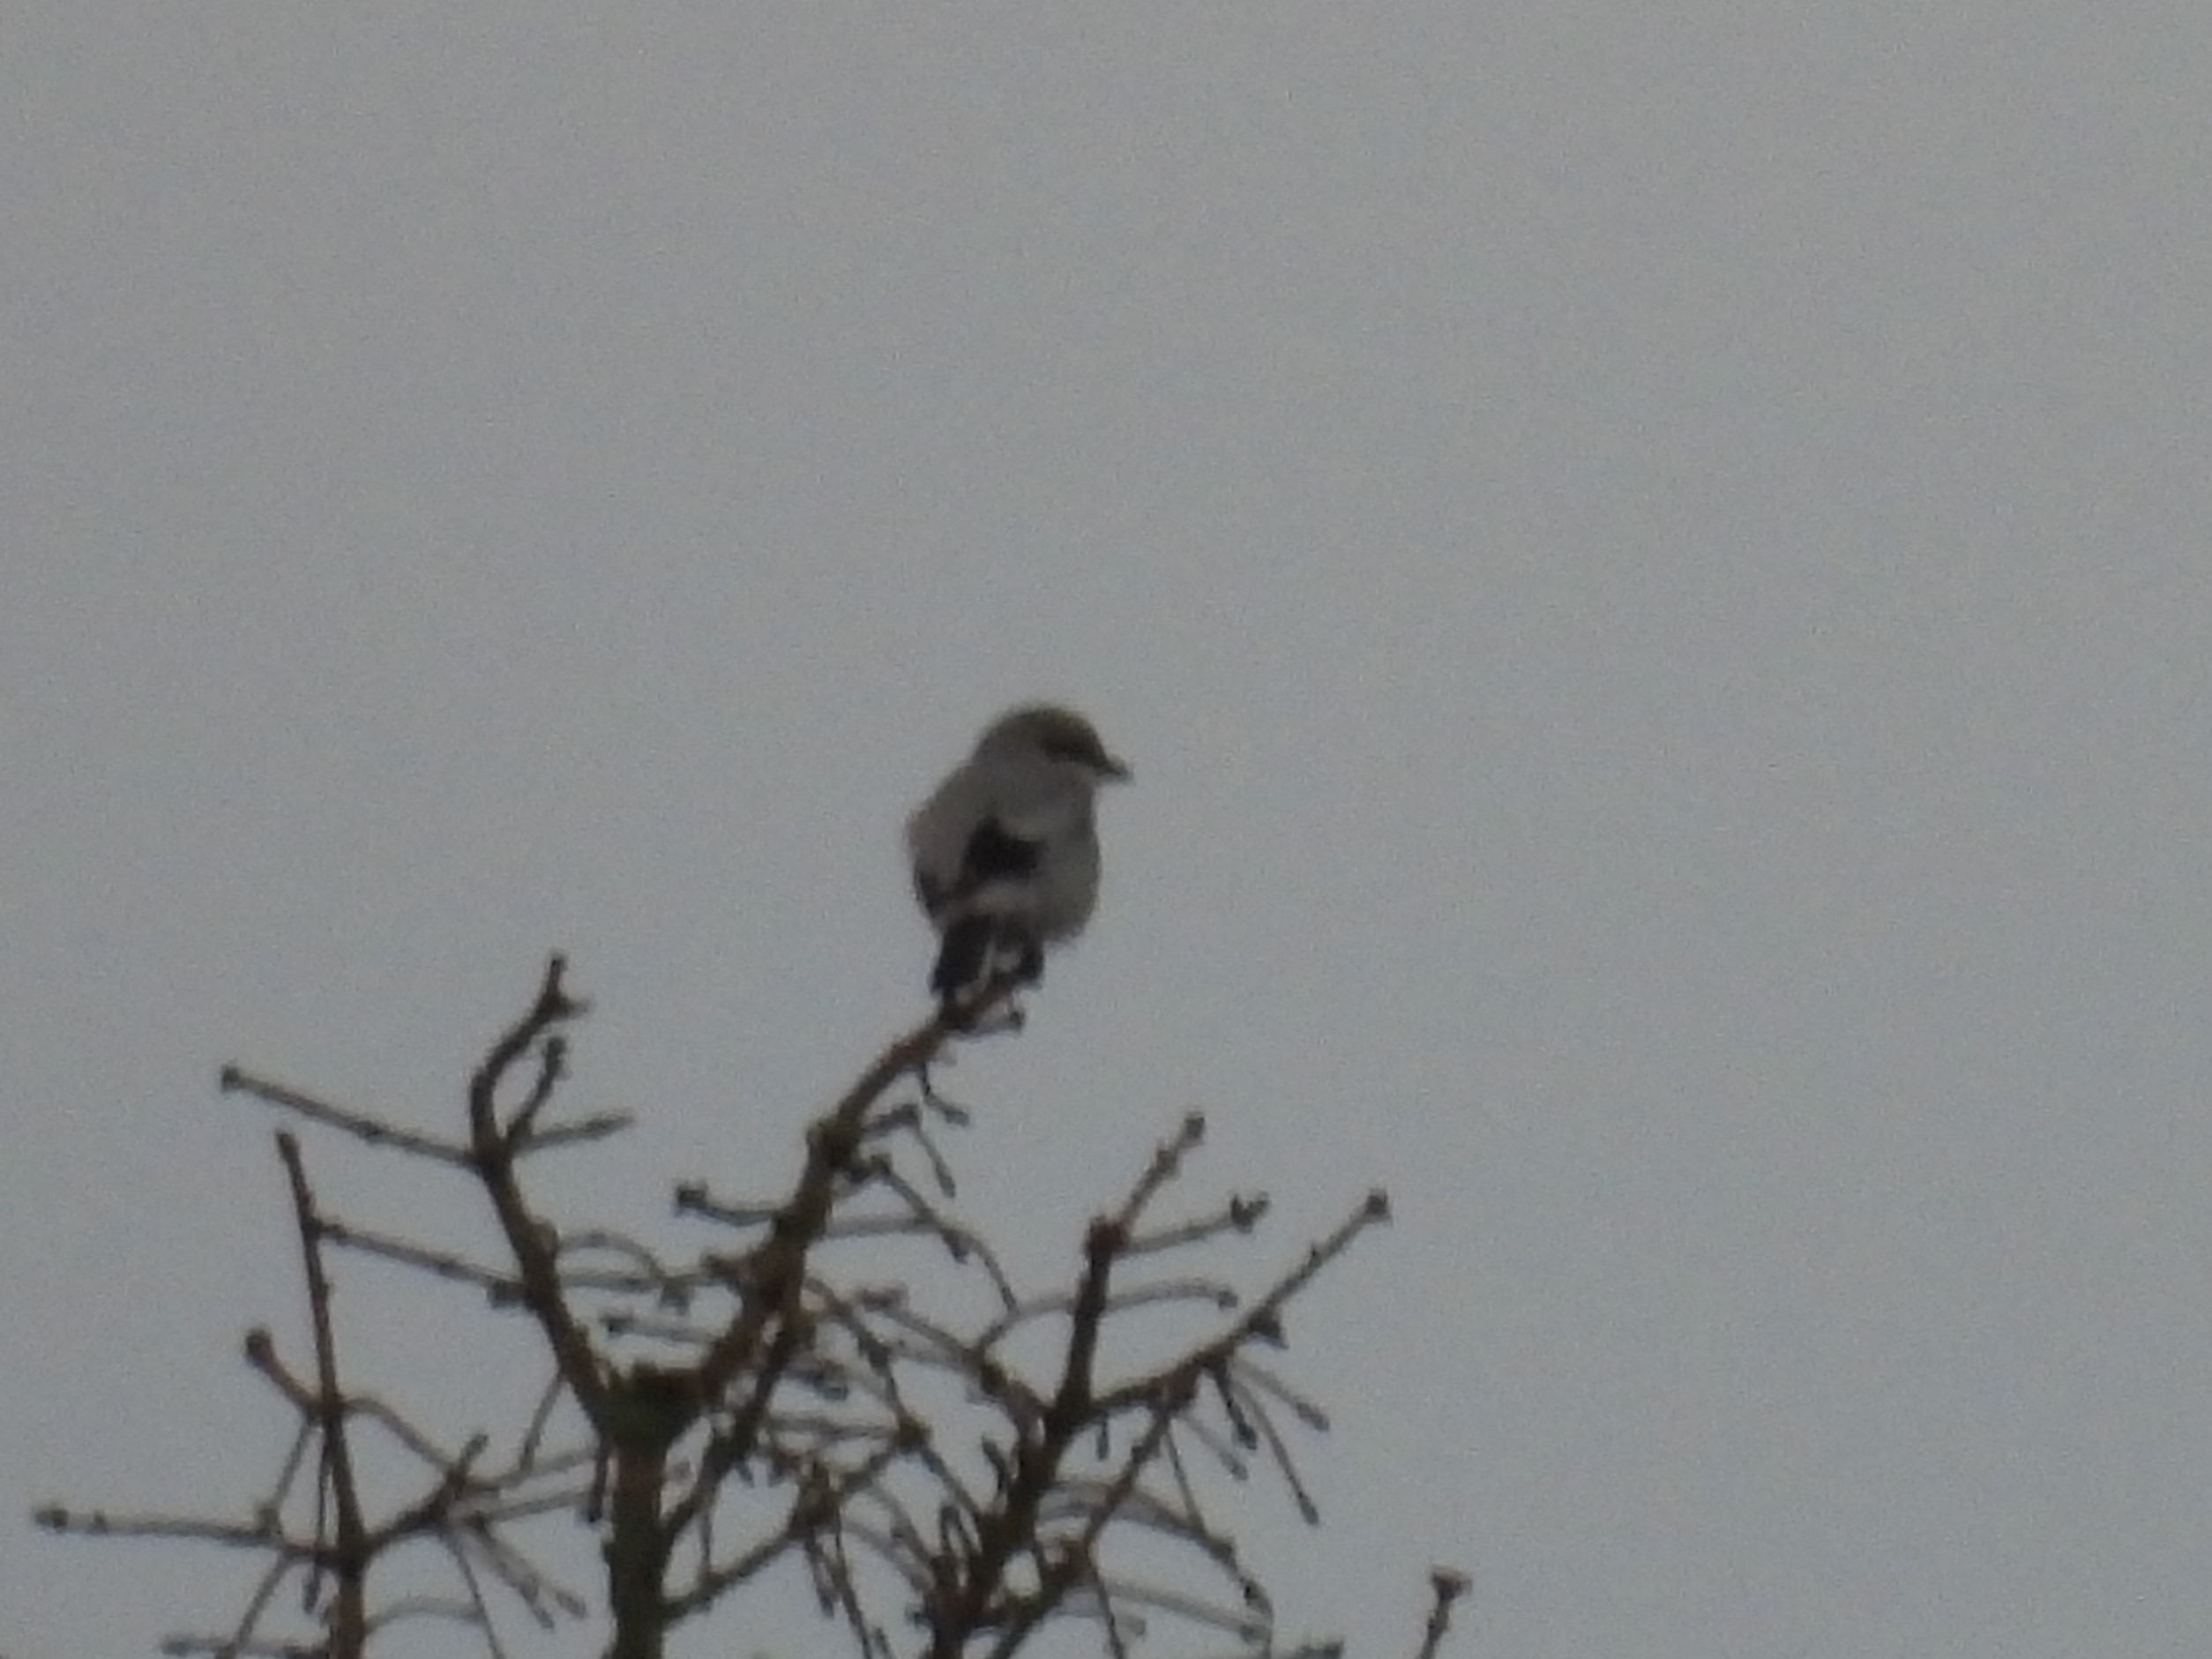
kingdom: Animalia
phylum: Chordata
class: Aves
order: Passeriformes
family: Laniidae
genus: Lanius
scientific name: Lanius excubitor
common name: Stor tornskade
